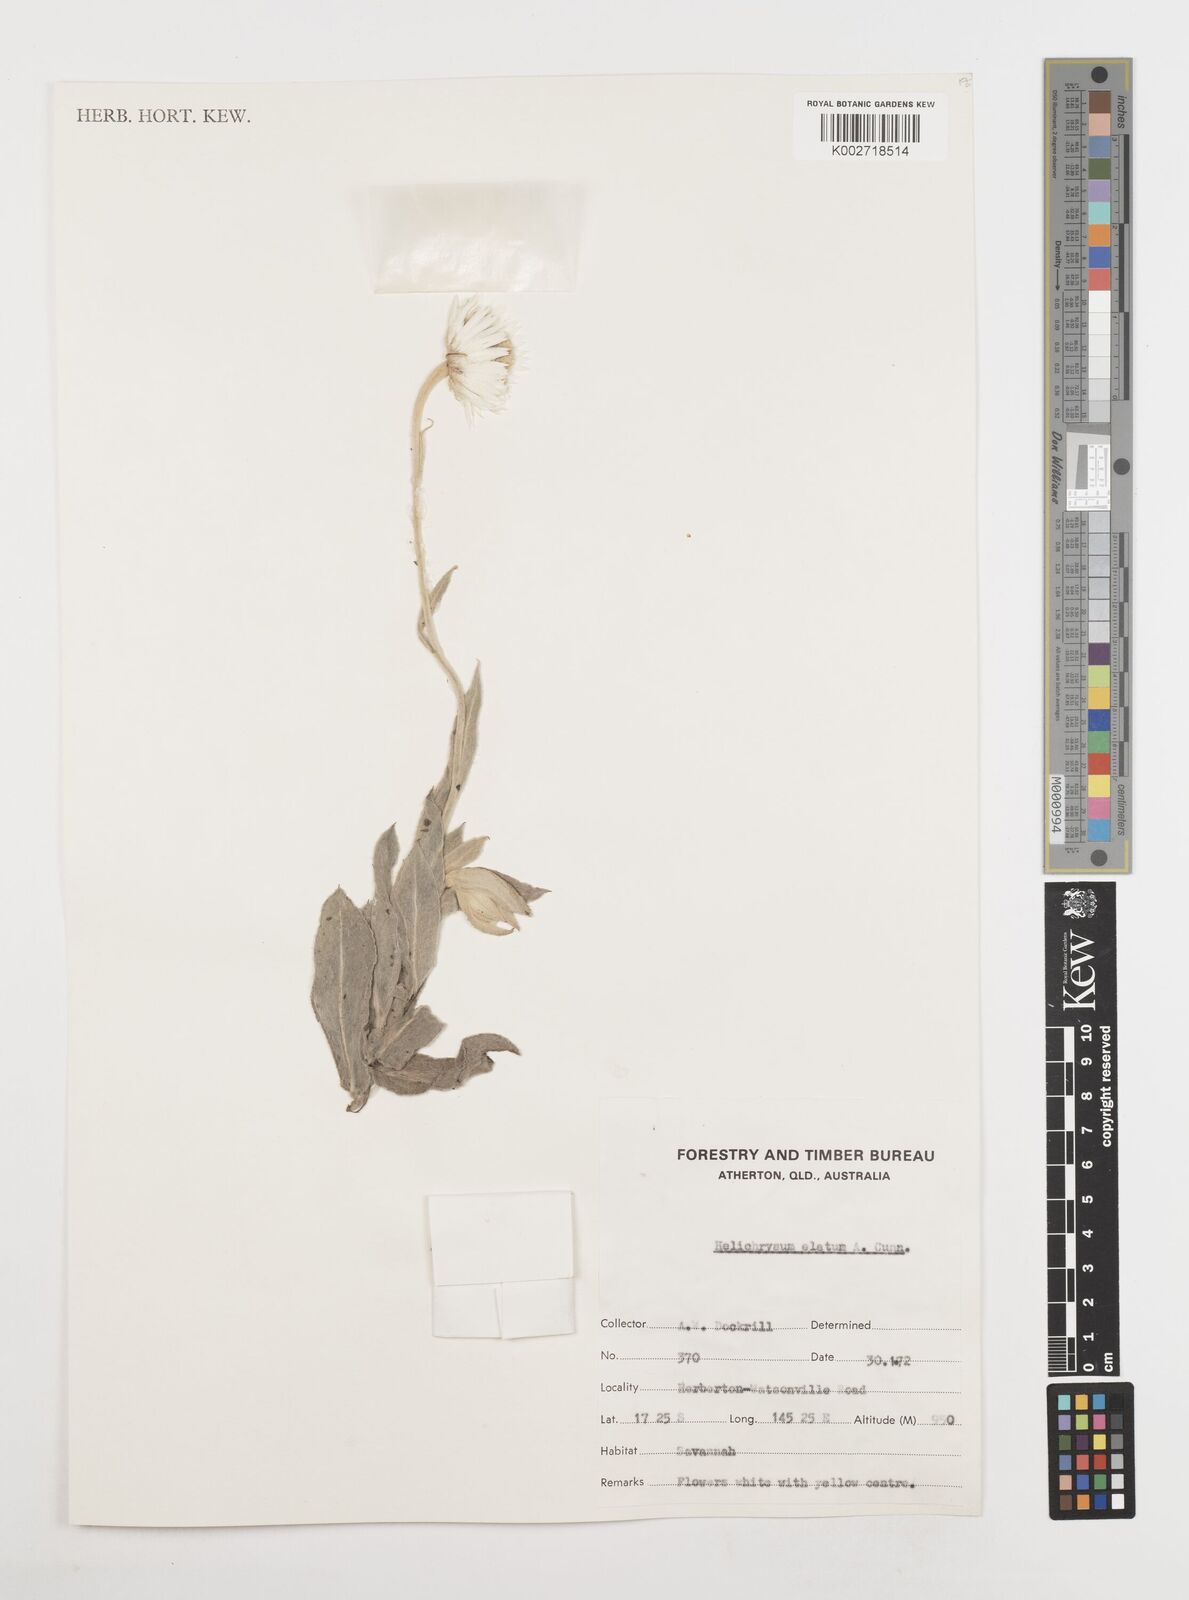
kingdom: Plantae
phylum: Tracheophyta
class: Magnoliopsida
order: Asterales
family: Asteraceae
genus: Leucozoma
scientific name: Leucozoma elatum
